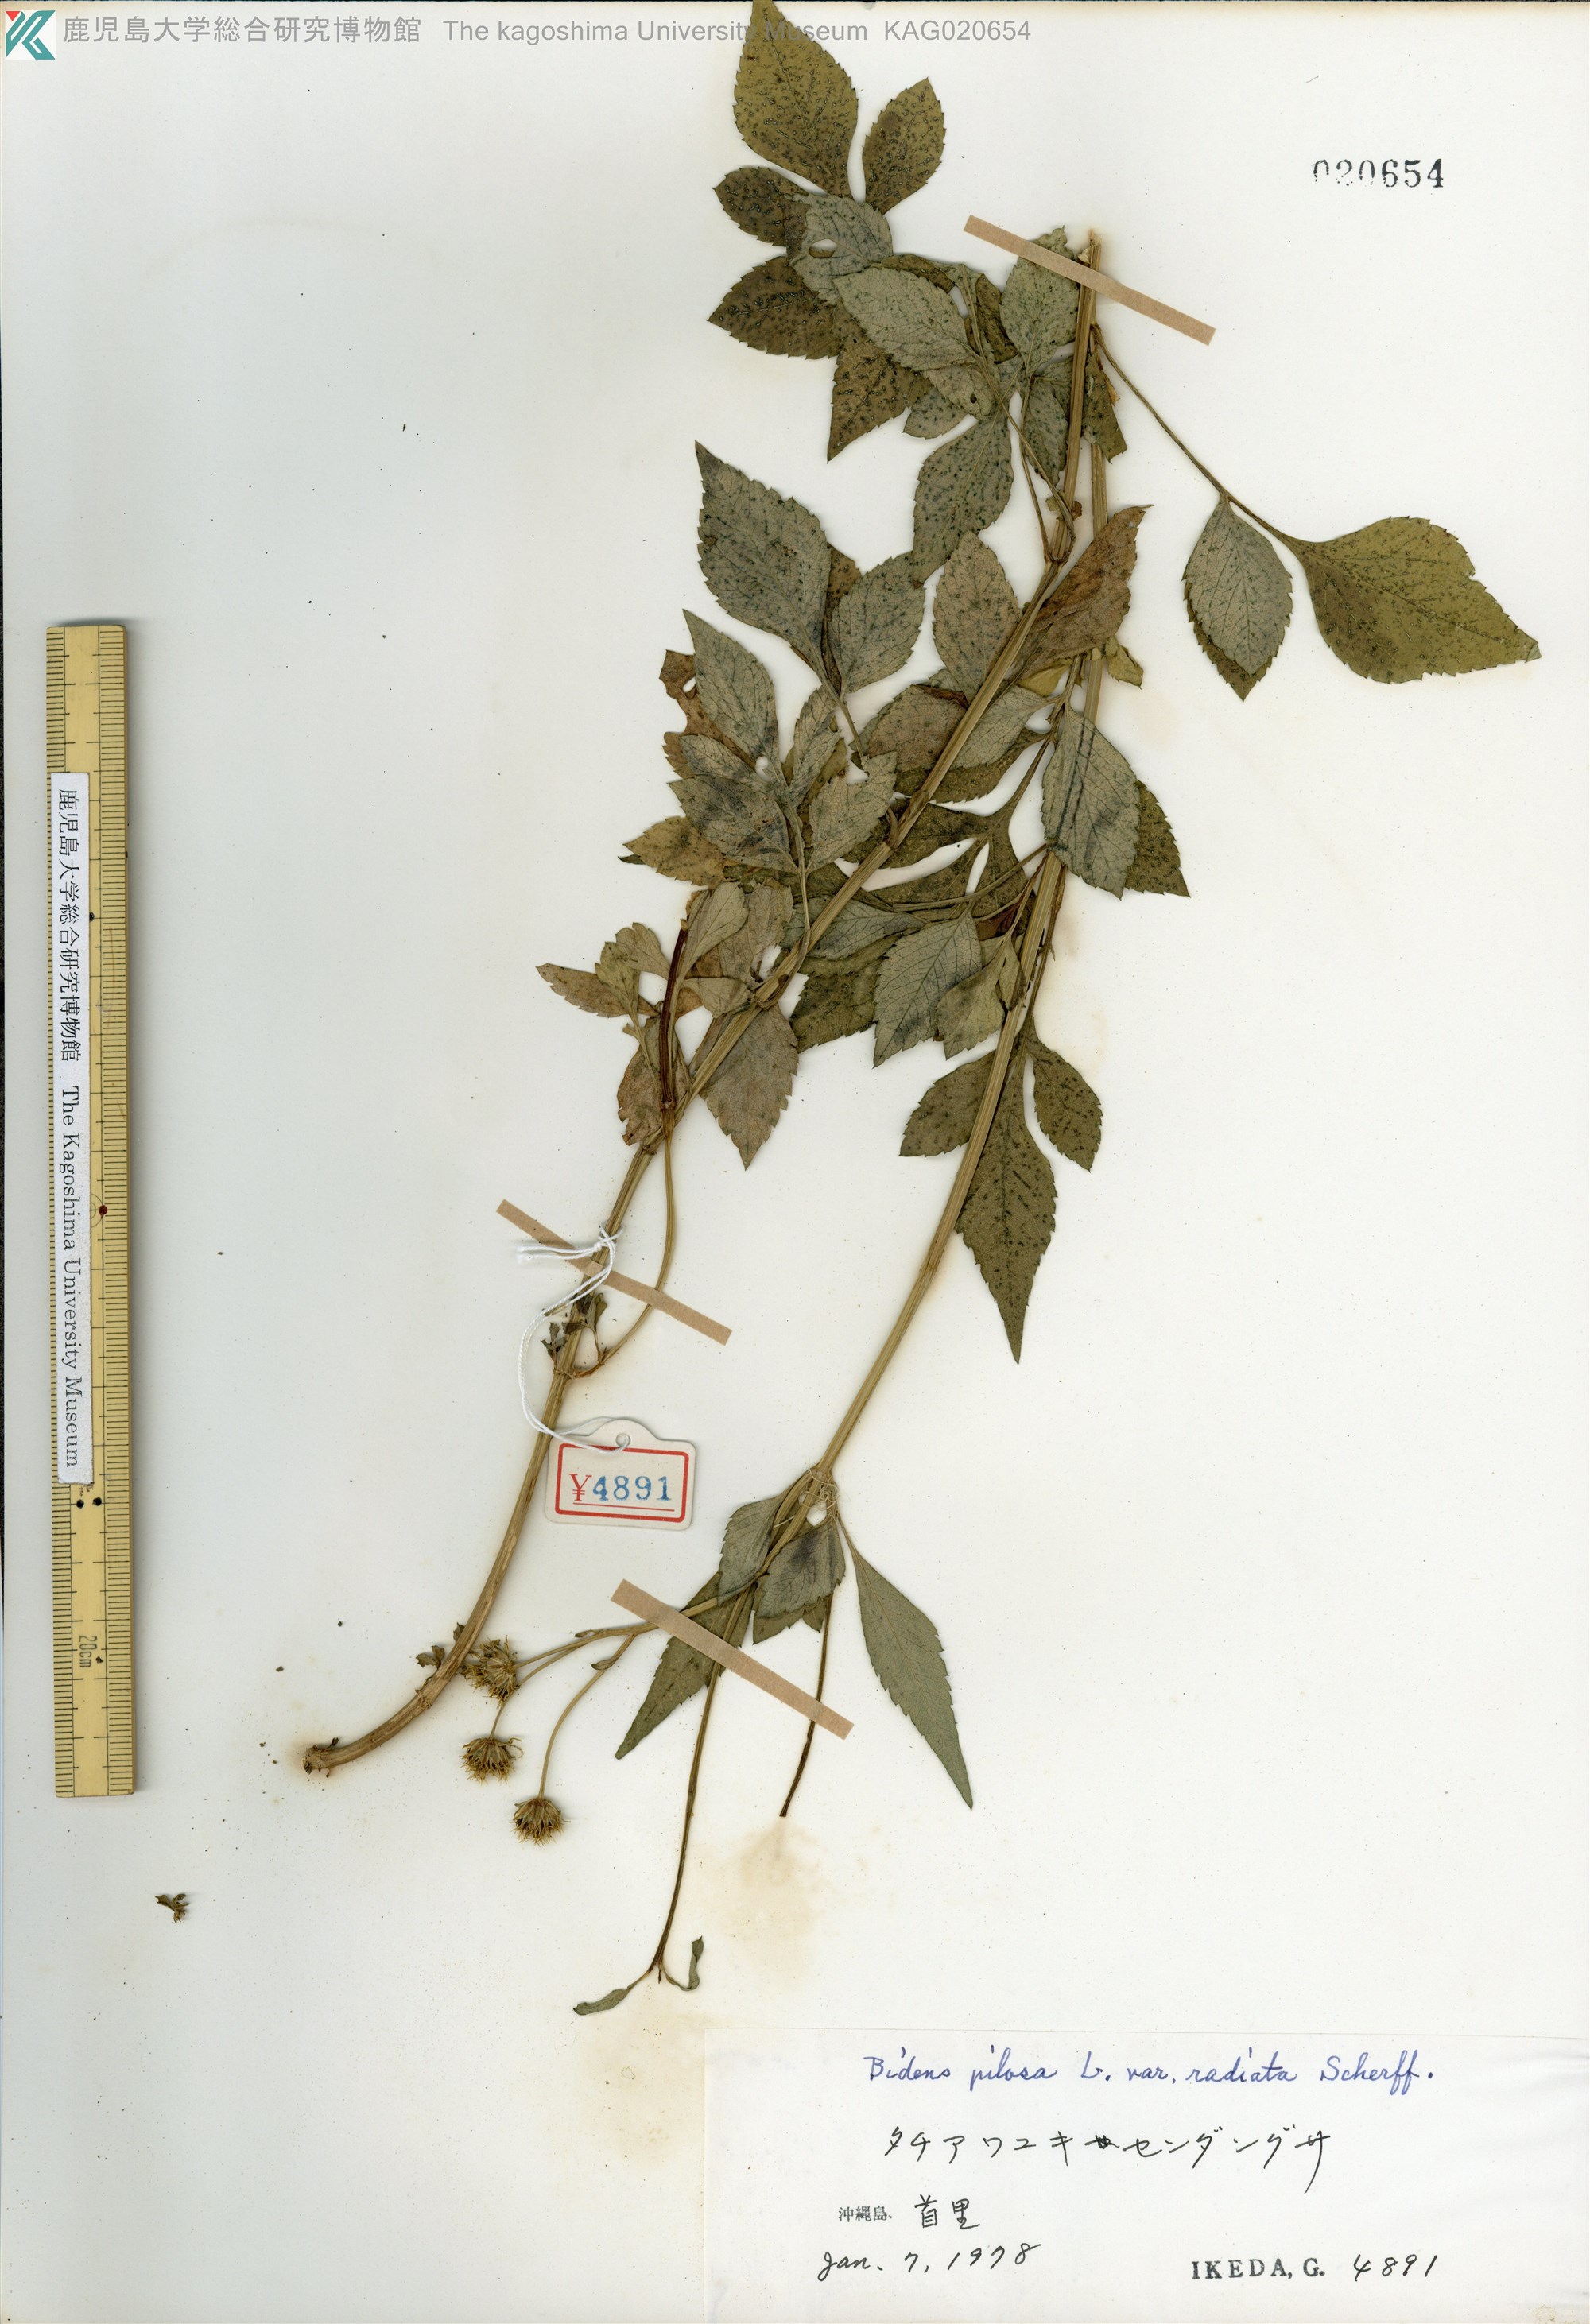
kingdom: Plantae
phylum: Tracheophyta
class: Magnoliopsida
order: Asterales
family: Asteraceae
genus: Bidens
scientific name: Bidens pilosa
